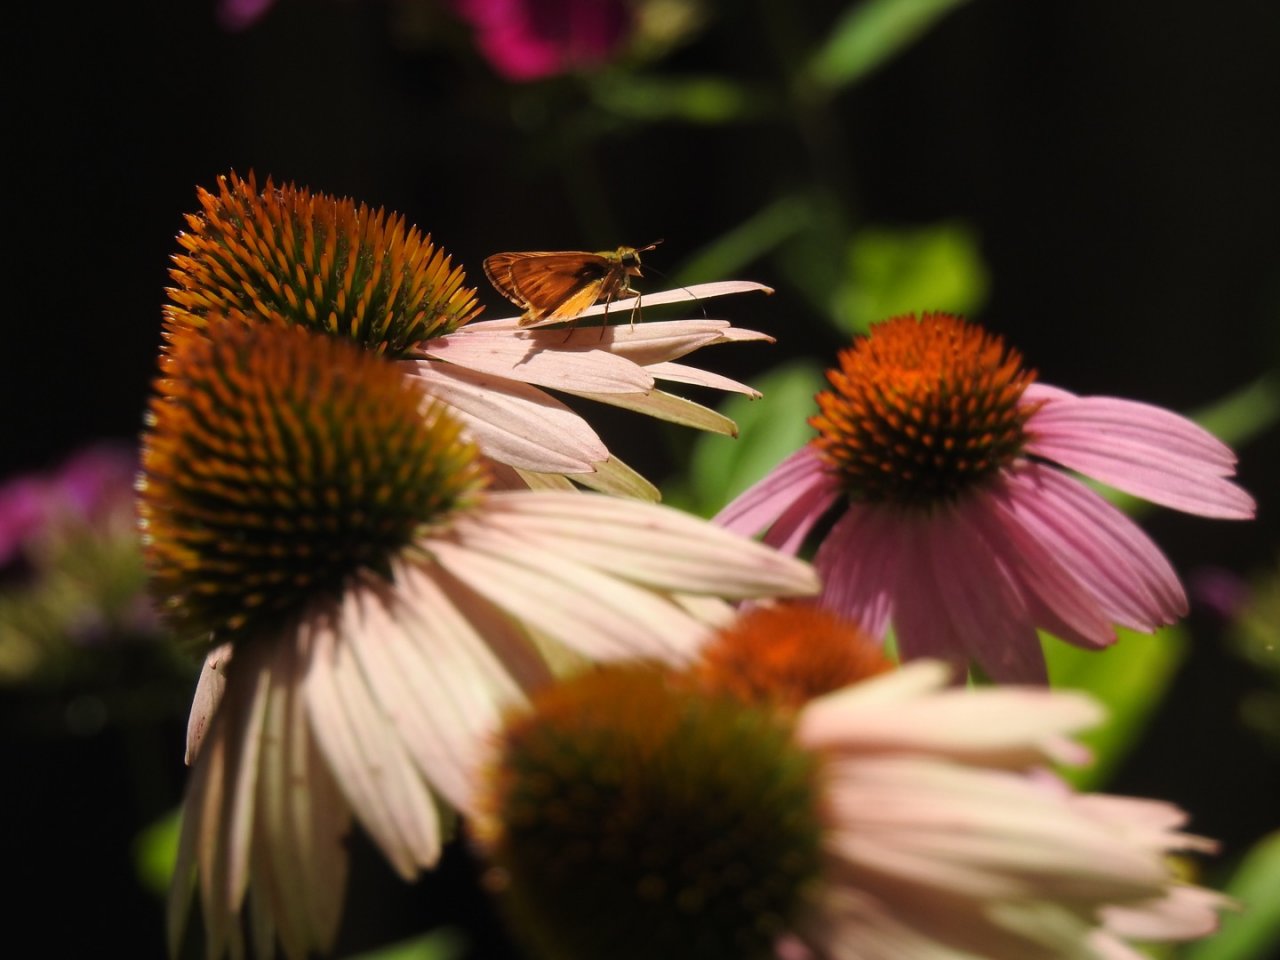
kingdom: Animalia
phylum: Arthropoda
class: Insecta
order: Lepidoptera
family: Hesperiidae
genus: Hylephila
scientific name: Hylephila phyleus
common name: Fiery Skipper
